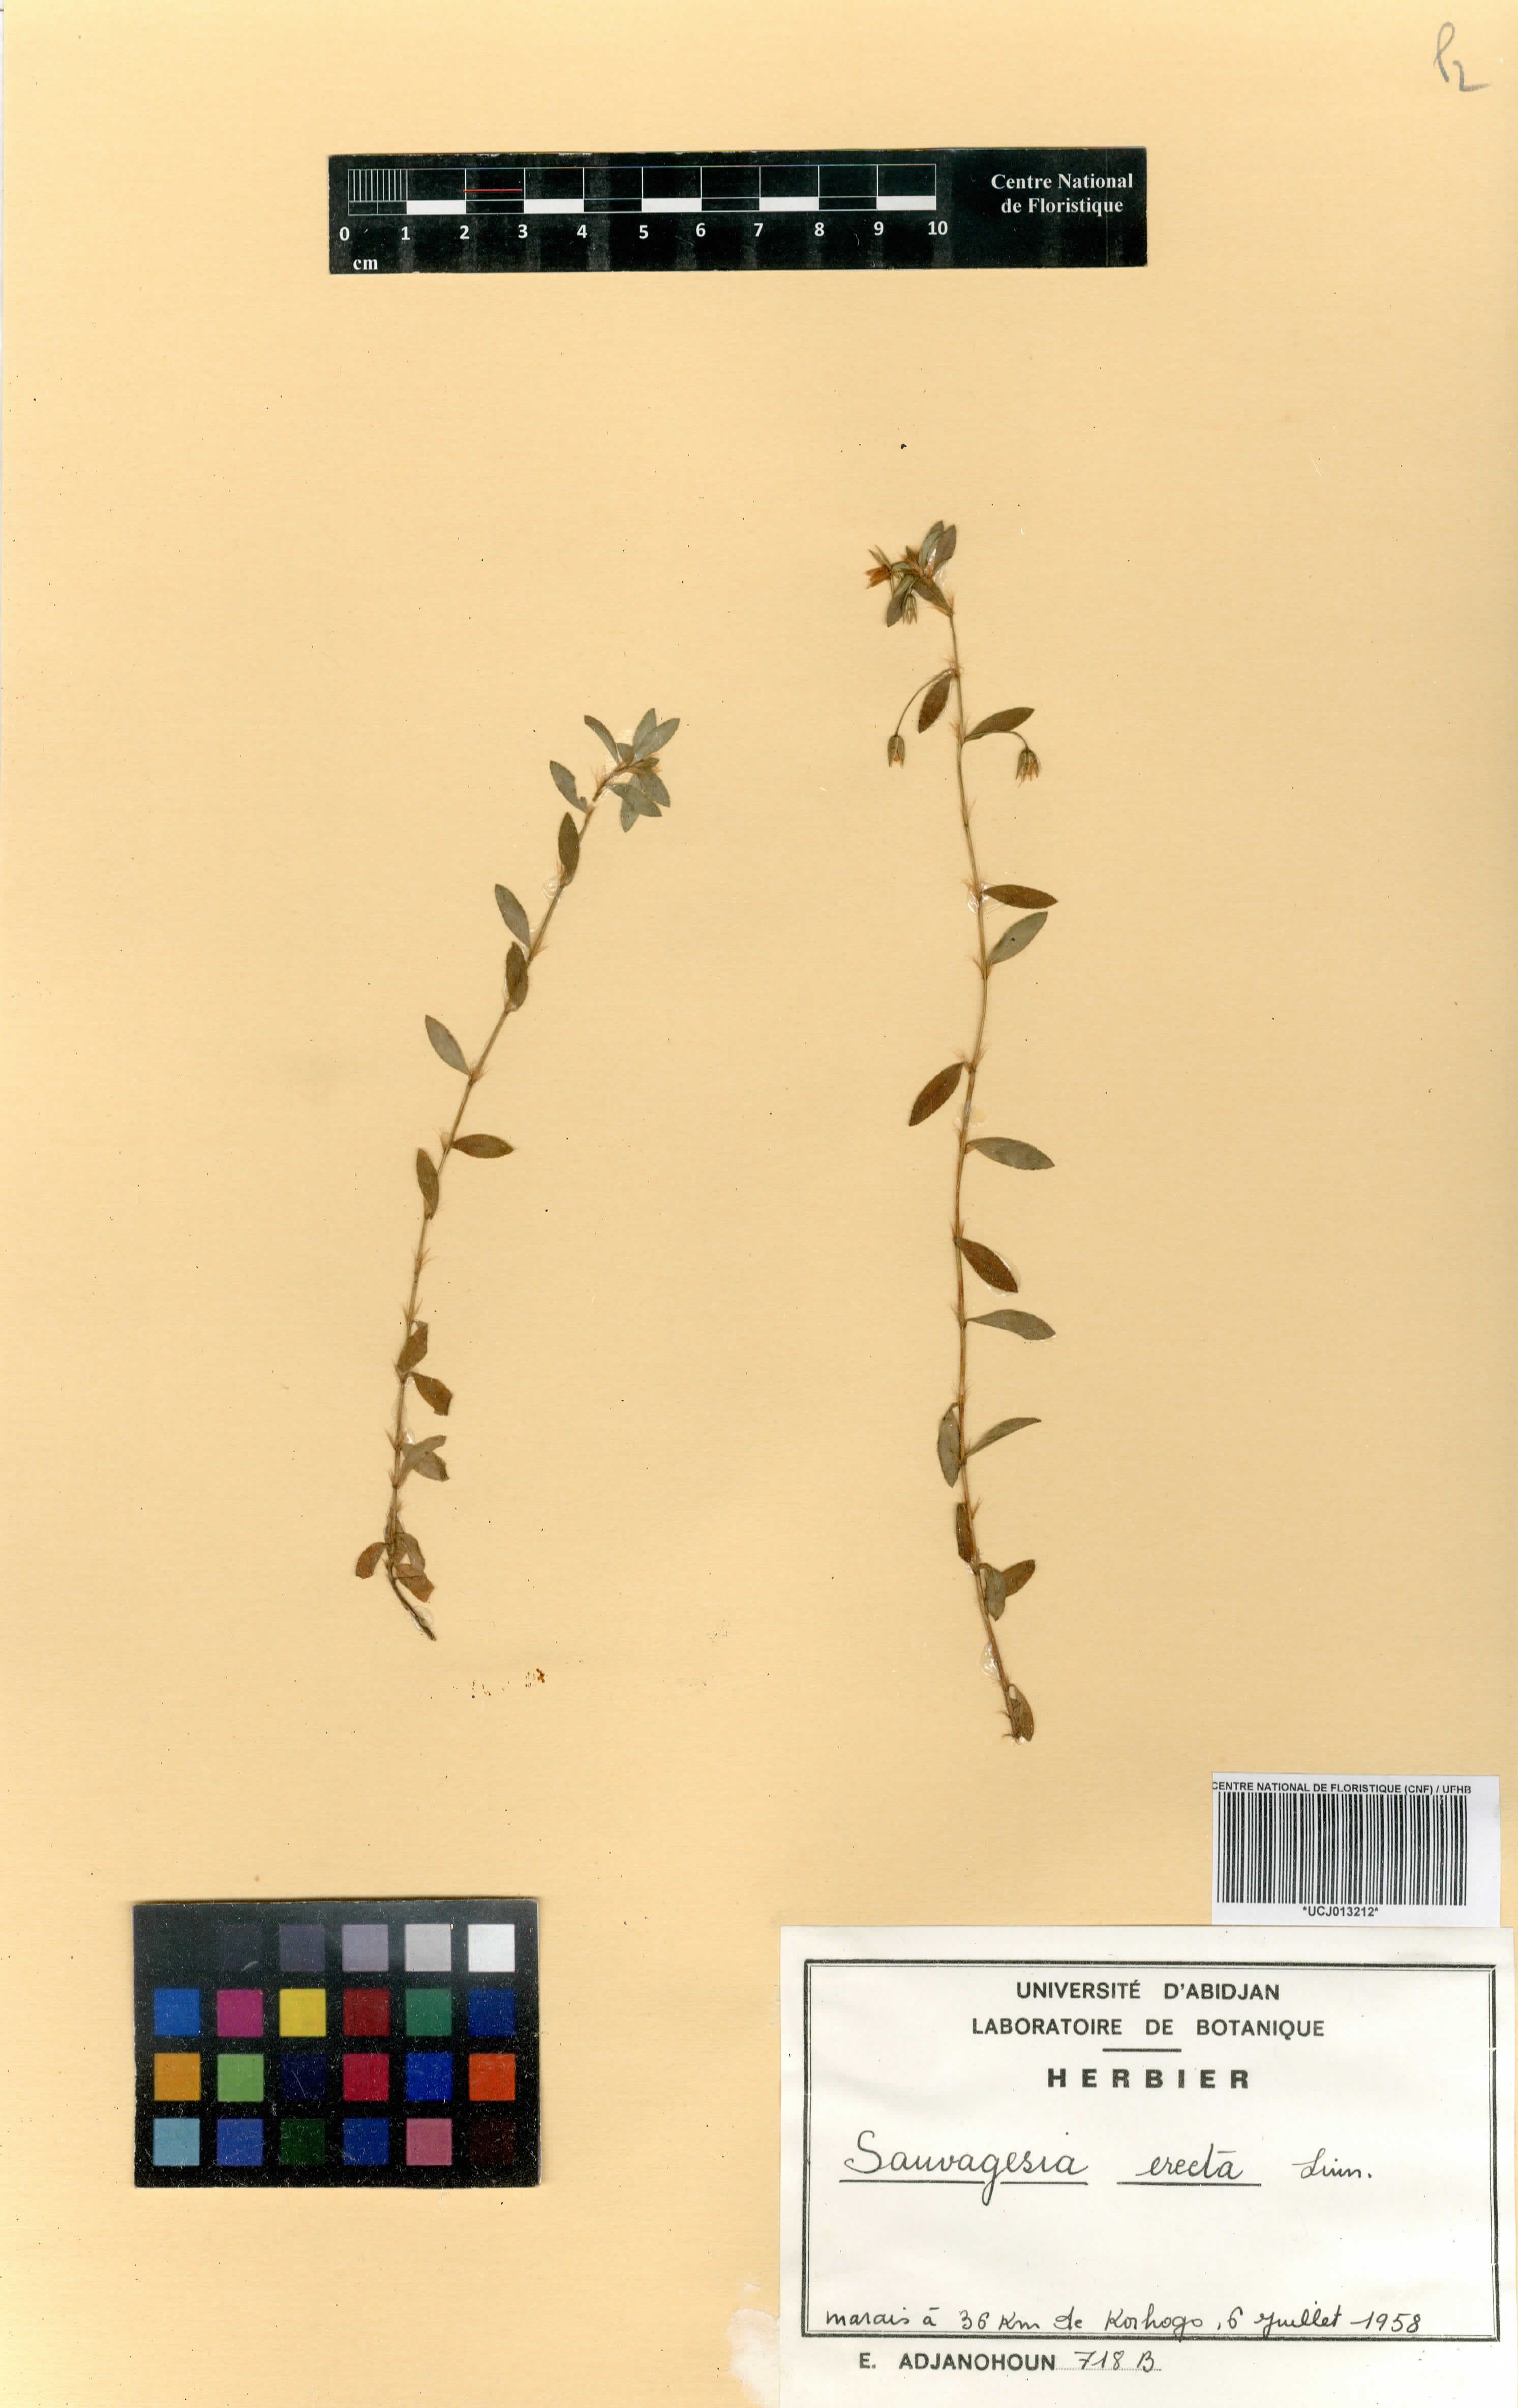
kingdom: Plantae
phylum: Tracheophyta
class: Magnoliopsida
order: Malpighiales
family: Ochnaceae
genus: Sauvagesia
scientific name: Sauvagesia erecta
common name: Creole tea
